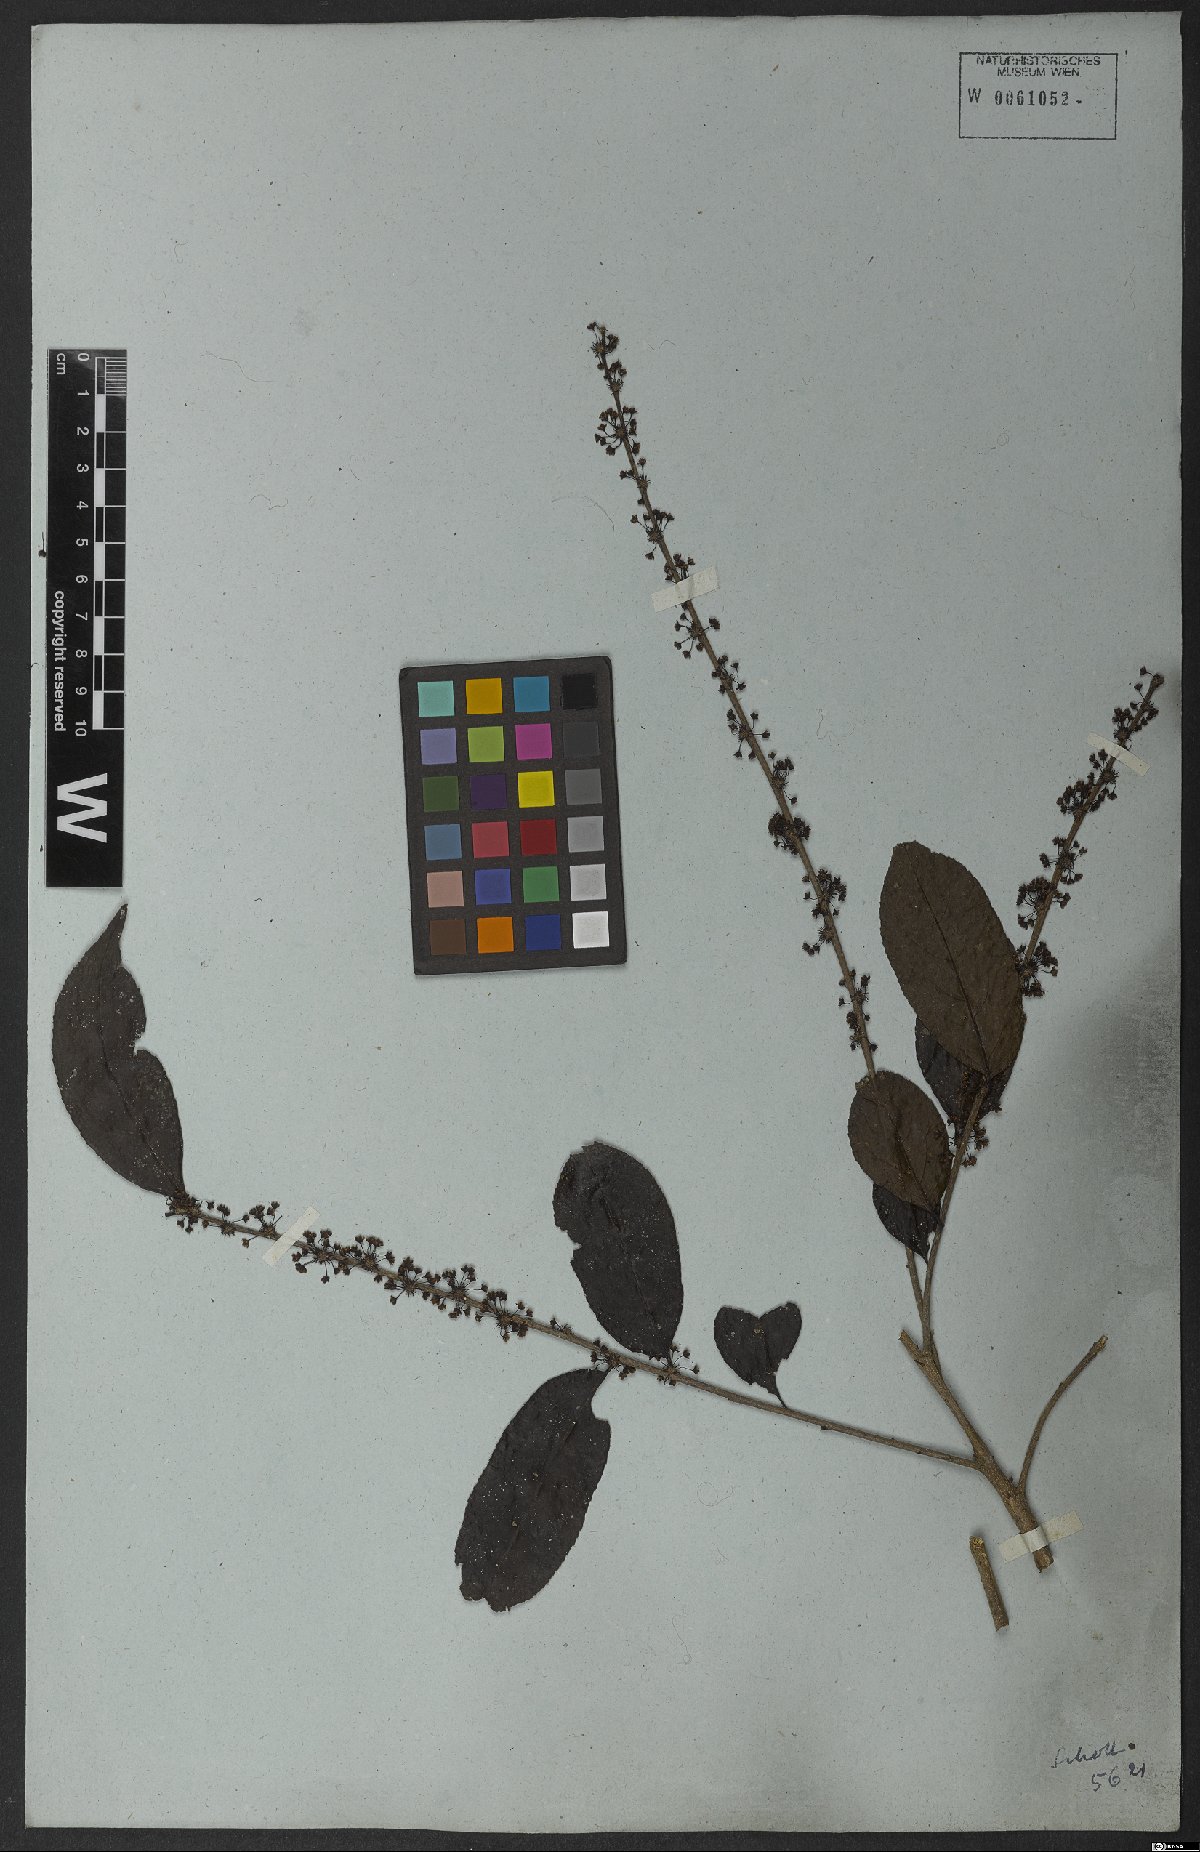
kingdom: Plantae
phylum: Tracheophyta
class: Magnoliopsida
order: Malpighiales
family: Salicaceae
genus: Casearia
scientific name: Casearia sylvestris
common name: Wild sage
